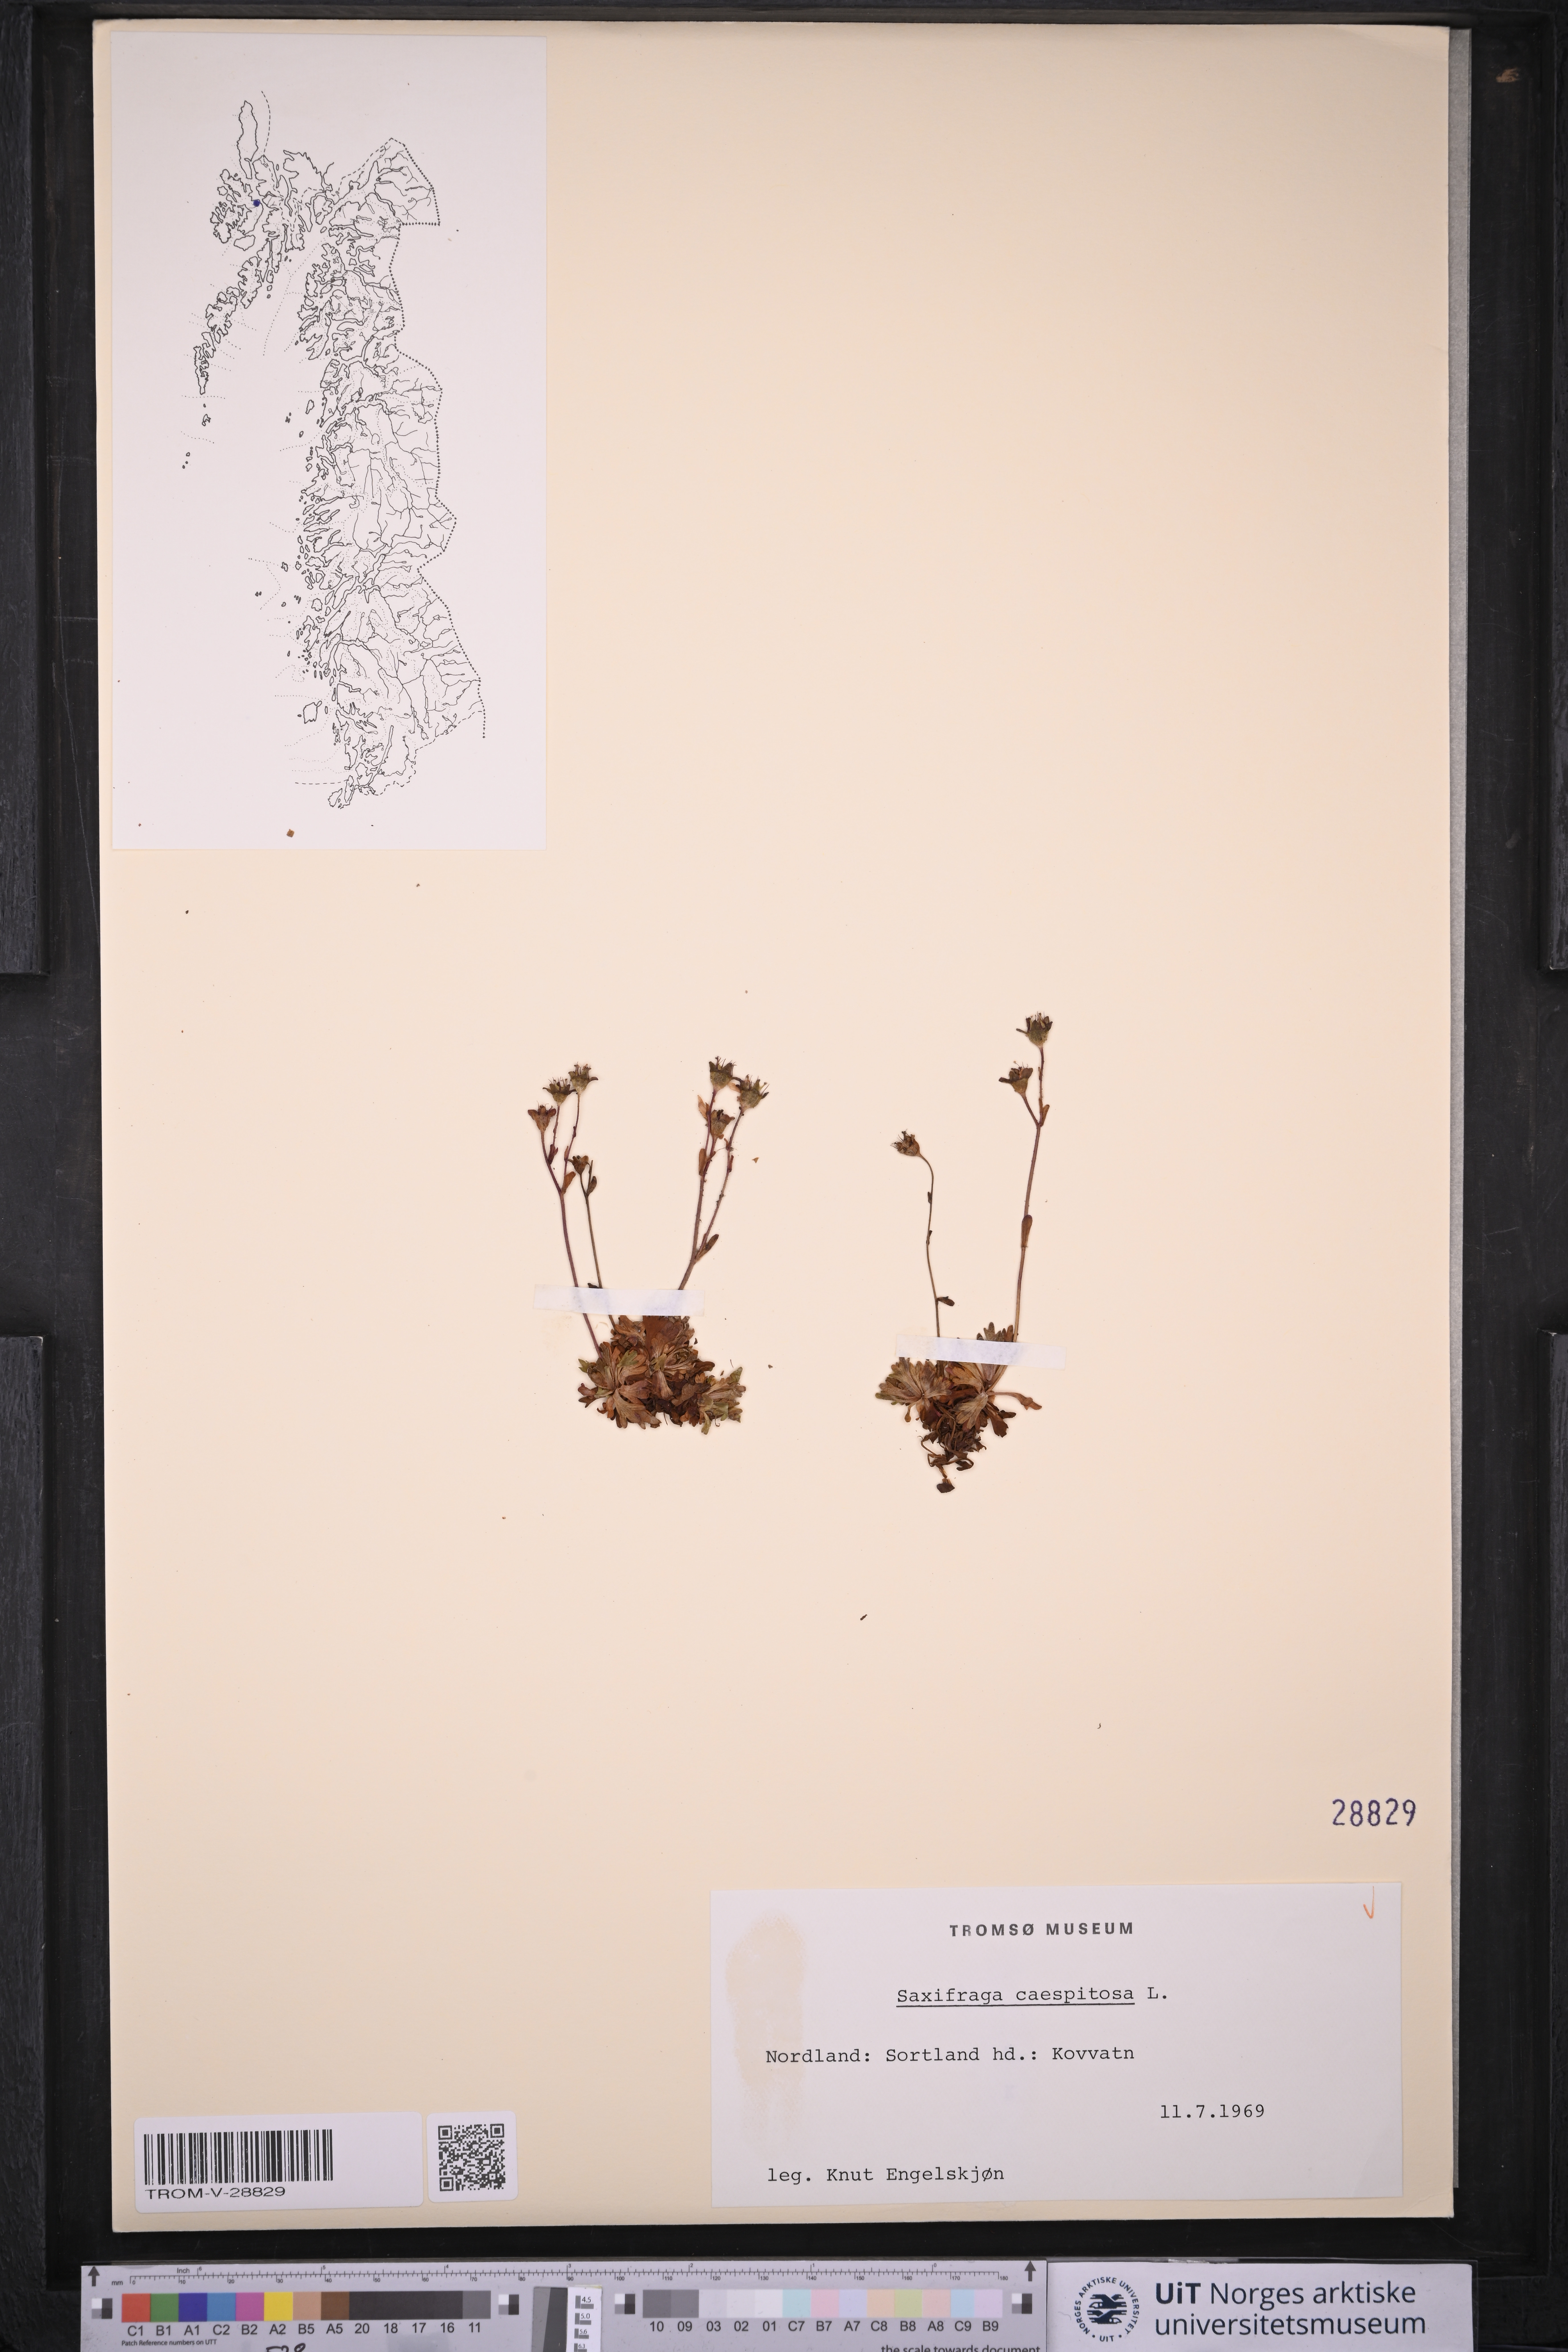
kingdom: Plantae
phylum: Tracheophyta
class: Magnoliopsida
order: Saxifragales
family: Saxifragaceae
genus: Saxifraga
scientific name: Saxifraga cespitosa
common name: Tufted saxifrage
